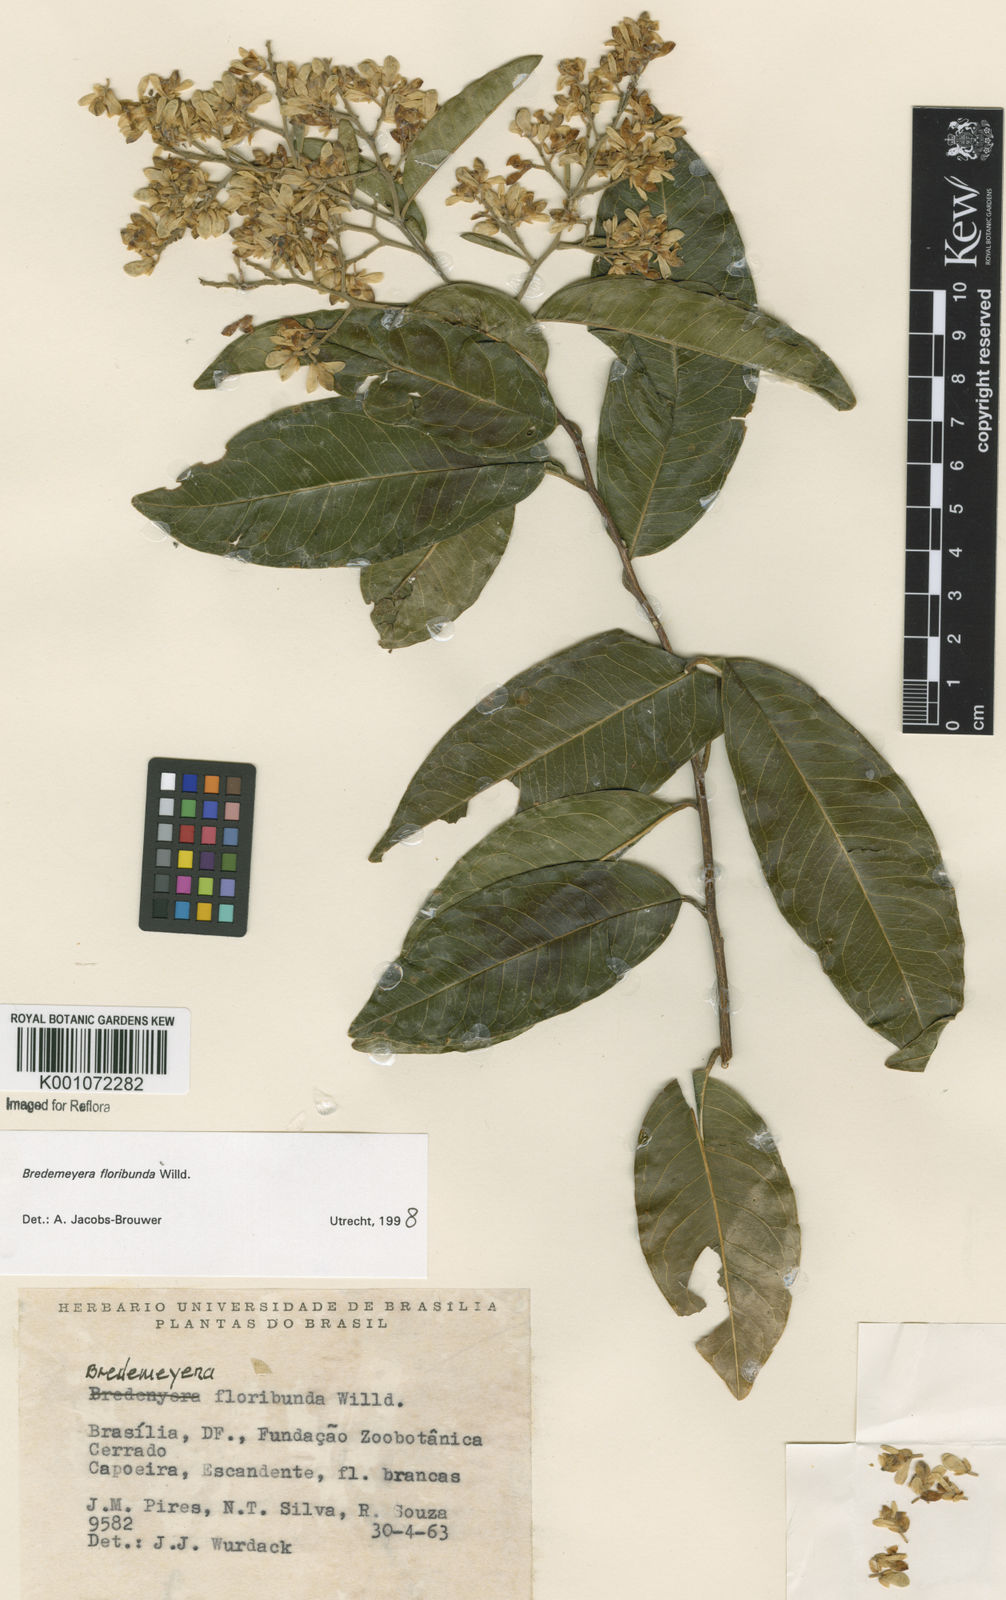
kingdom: Plantae
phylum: Tracheophyta
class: Magnoliopsida
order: Fabales
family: Polygalaceae
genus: Bredemeyera
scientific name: Bredemeyera floribunda
